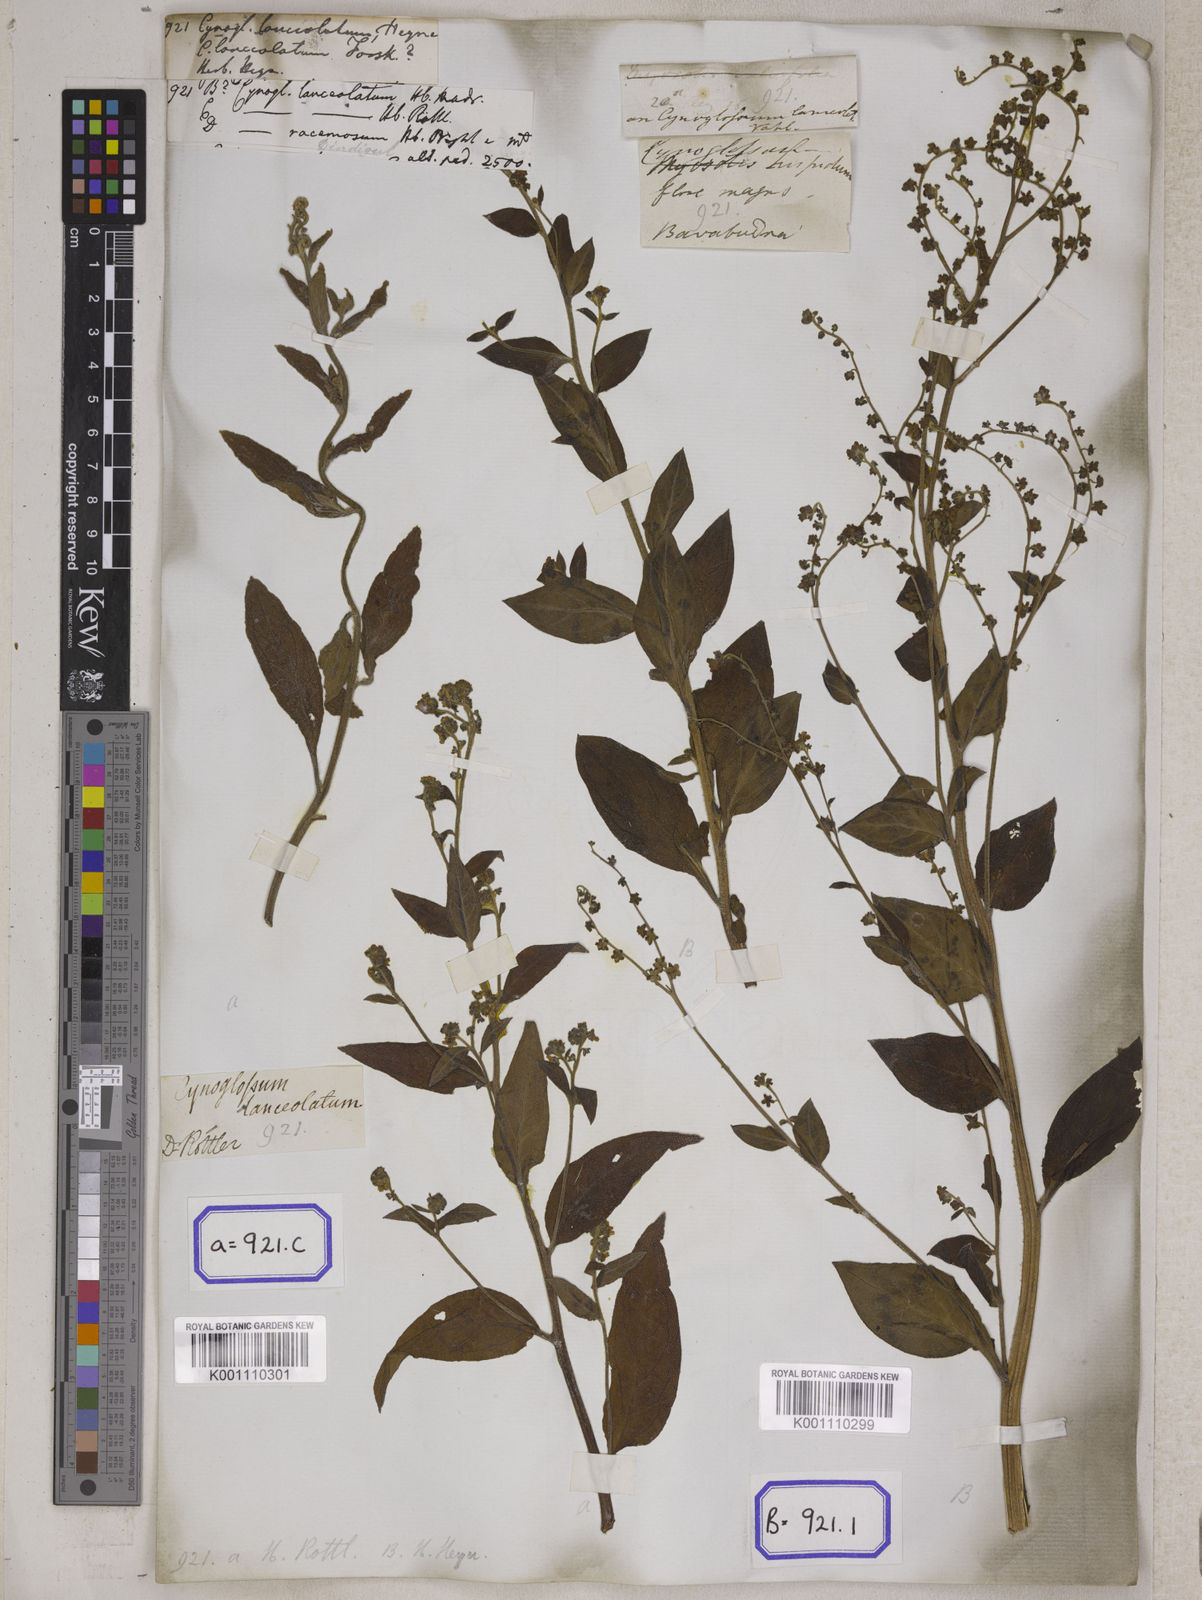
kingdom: Plantae
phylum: Tracheophyta
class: Magnoliopsida
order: Boraginales
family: Boraginaceae
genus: Cynoglossum
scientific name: Cynoglossum
